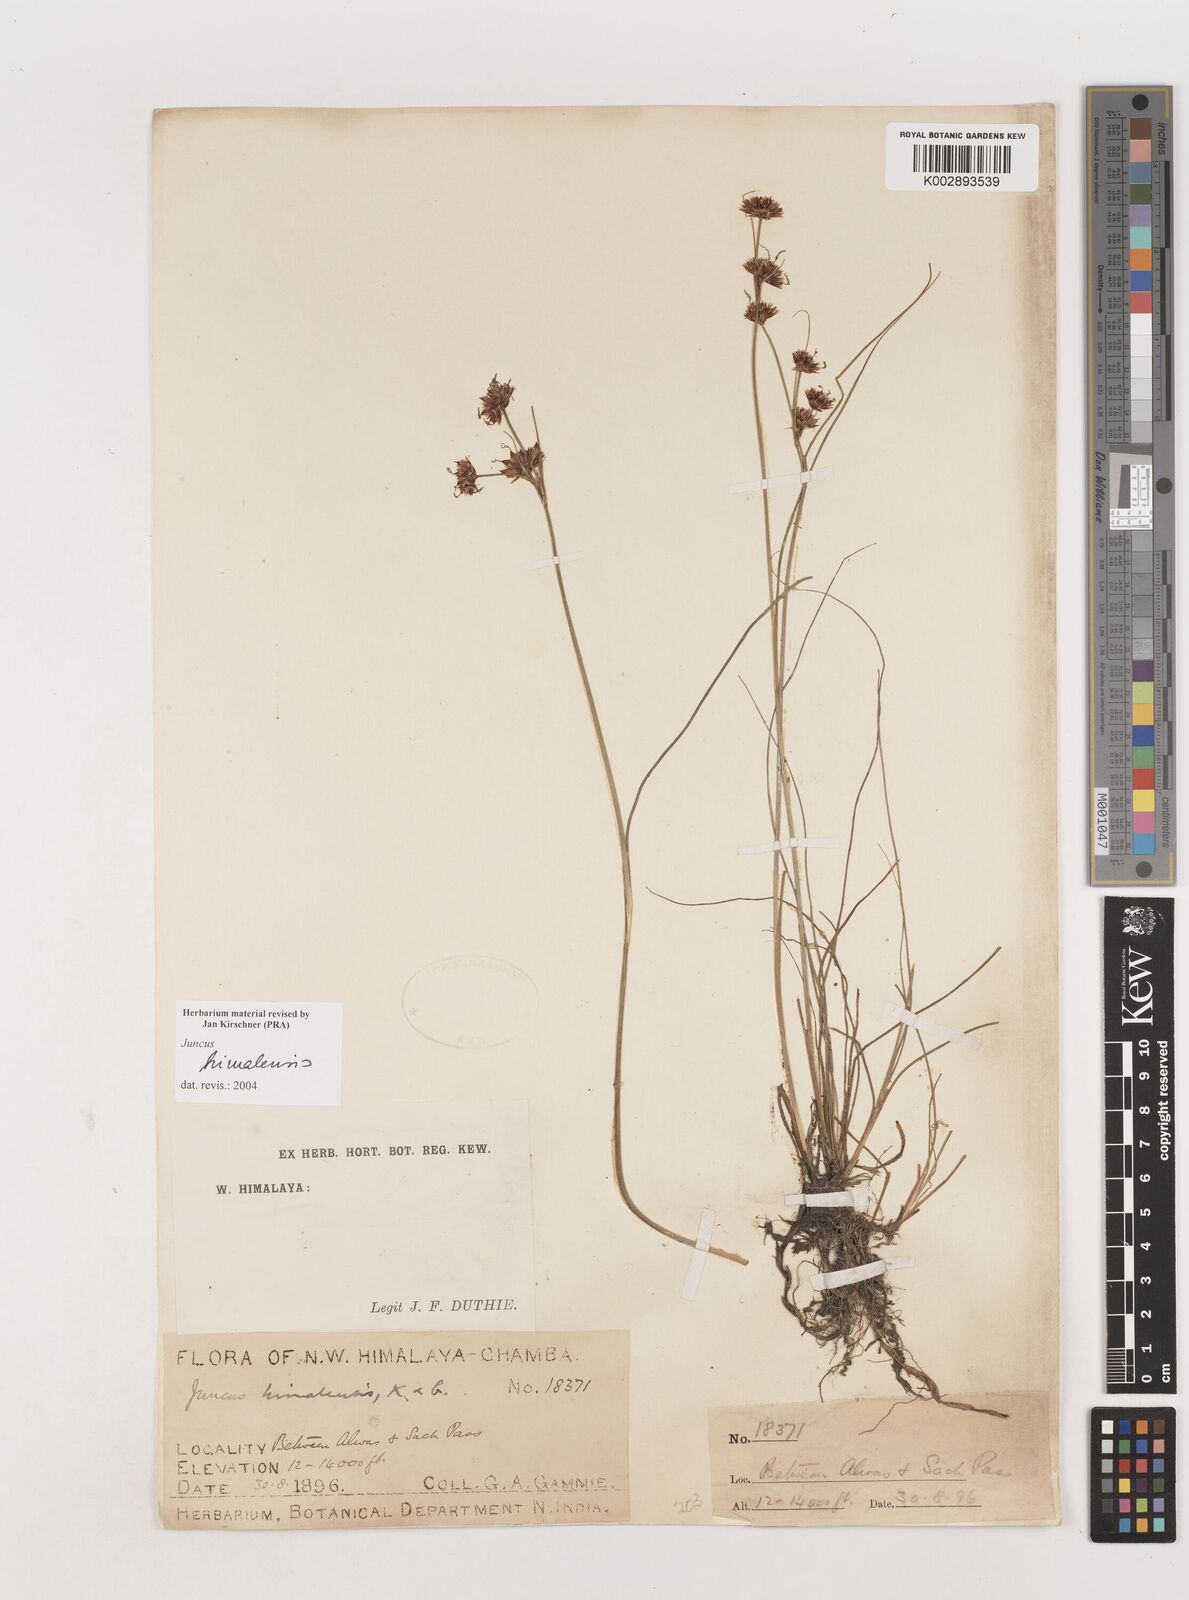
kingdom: Plantae
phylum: Tracheophyta
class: Liliopsida
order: Poales
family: Juncaceae
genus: Juncus
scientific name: Juncus himalensis
